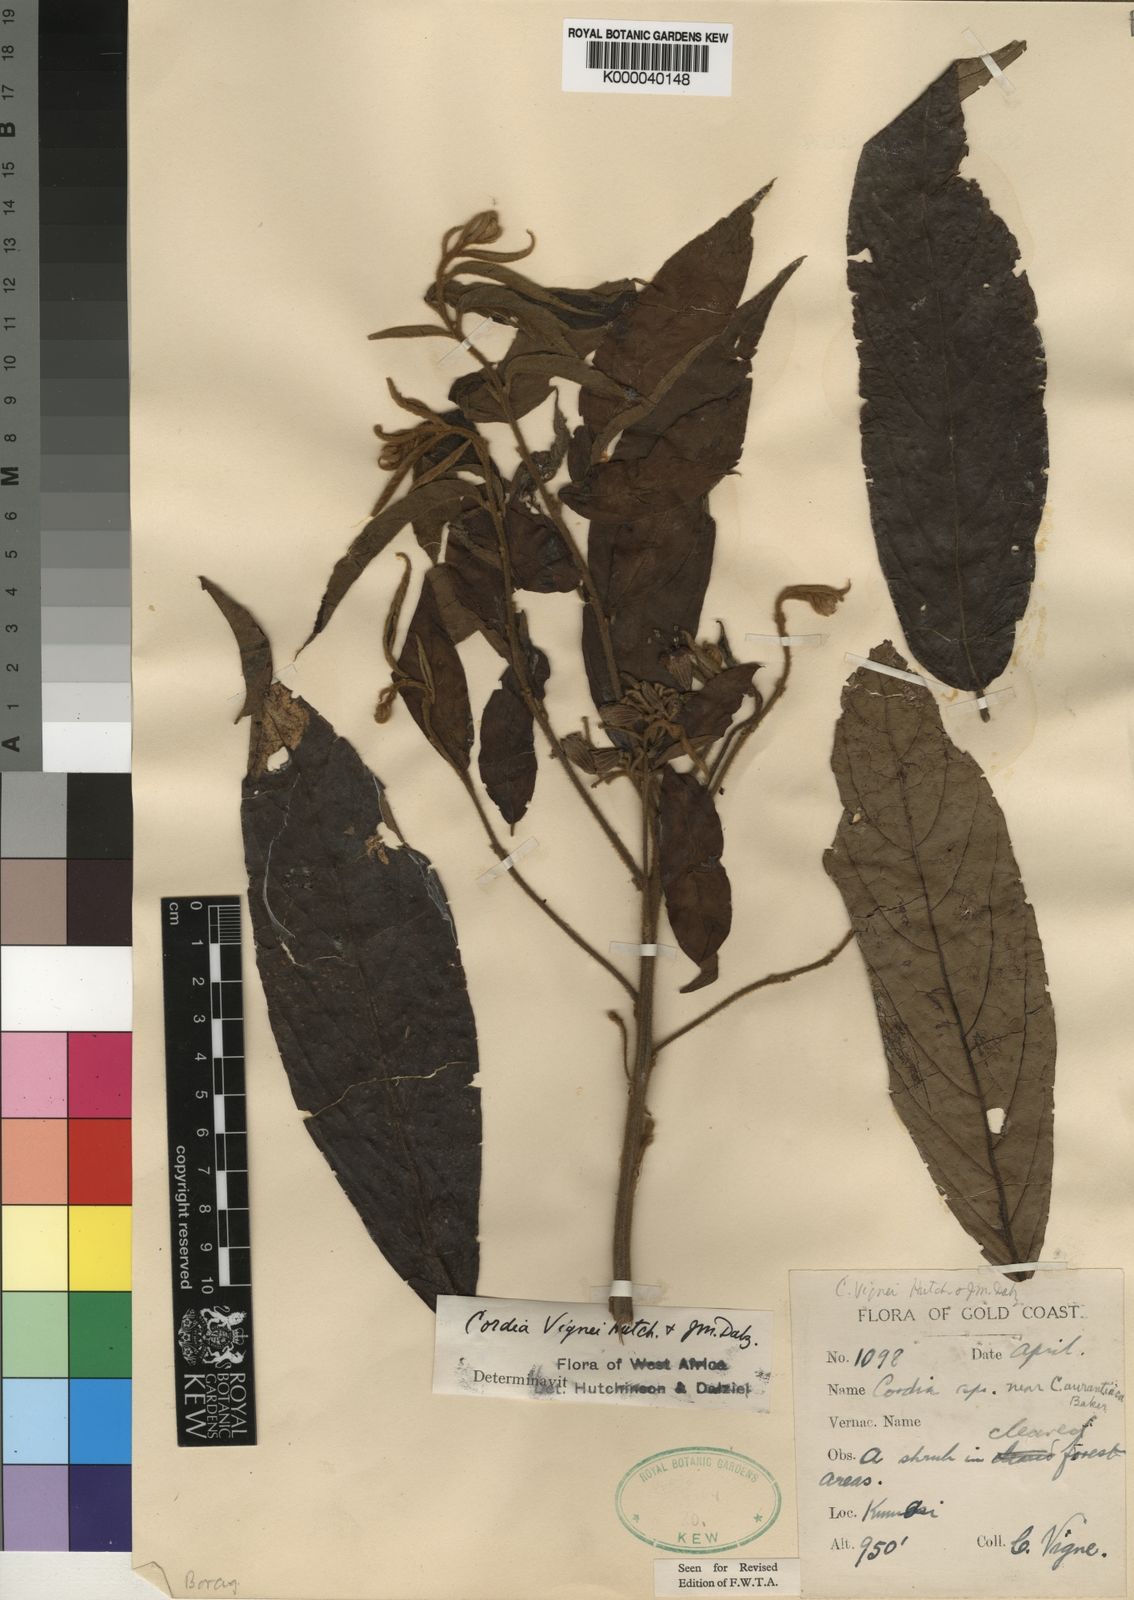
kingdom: Plantae
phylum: Tracheophyta
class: Magnoliopsida
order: Boraginales
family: Cordiaceae
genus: Cordia
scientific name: Cordia vignei
